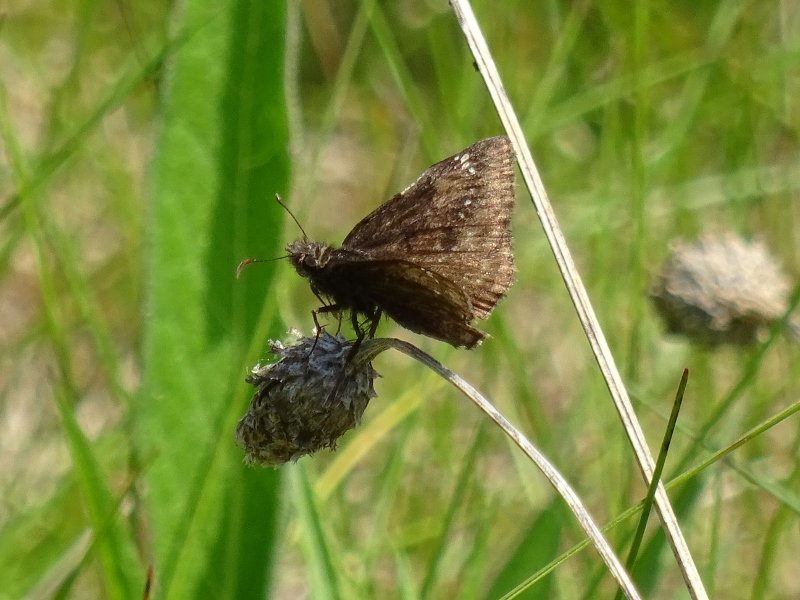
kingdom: Animalia
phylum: Arthropoda
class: Insecta
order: Lepidoptera
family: Hesperiidae
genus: Gesta
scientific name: Gesta
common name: Wild Indigo Duskywing
